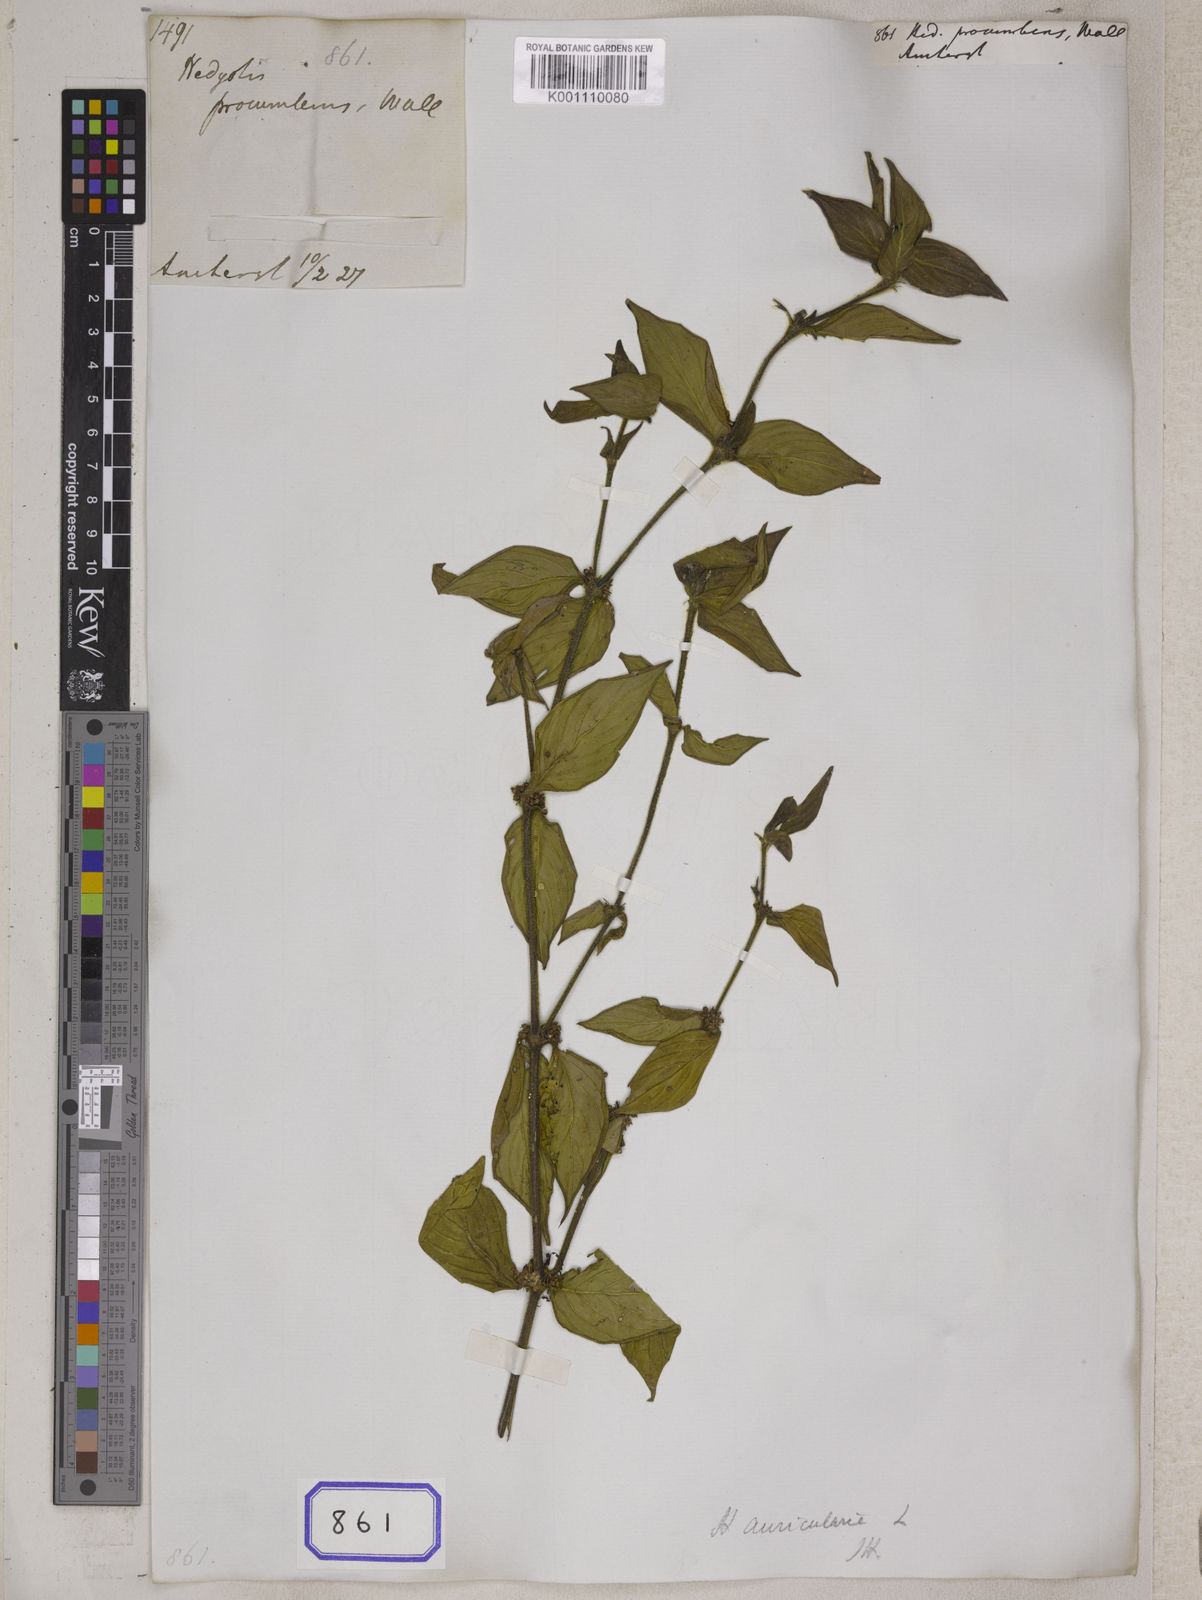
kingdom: Plantae
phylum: Tracheophyta
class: Magnoliopsida
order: Gentianales
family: Rubiaceae
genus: Hedyotis
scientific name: Hedyotis
